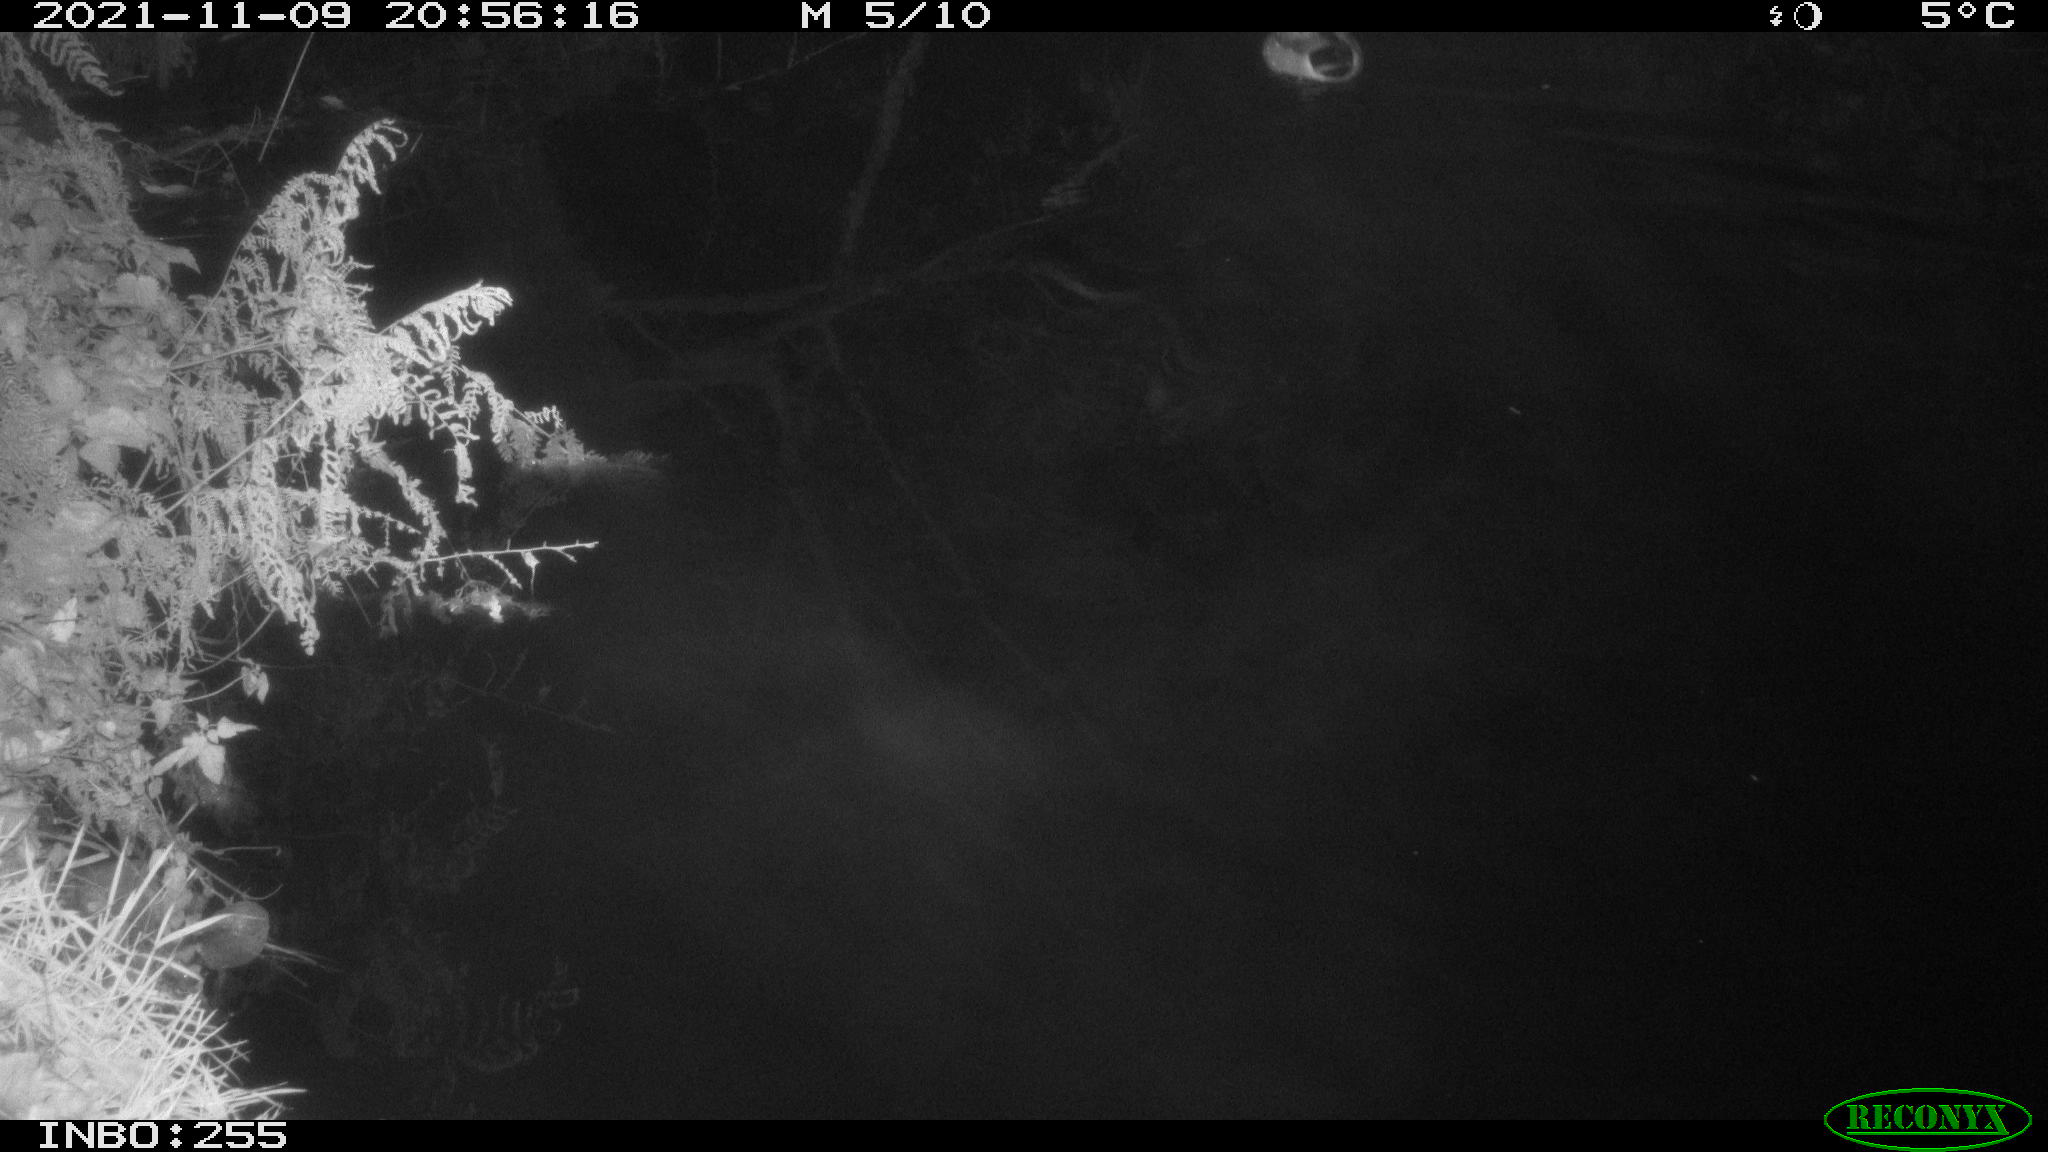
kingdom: Animalia
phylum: Chordata
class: Aves
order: Anseriformes
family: Anatidae
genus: Anas
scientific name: Anas platyrhynchos
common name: Mallard
